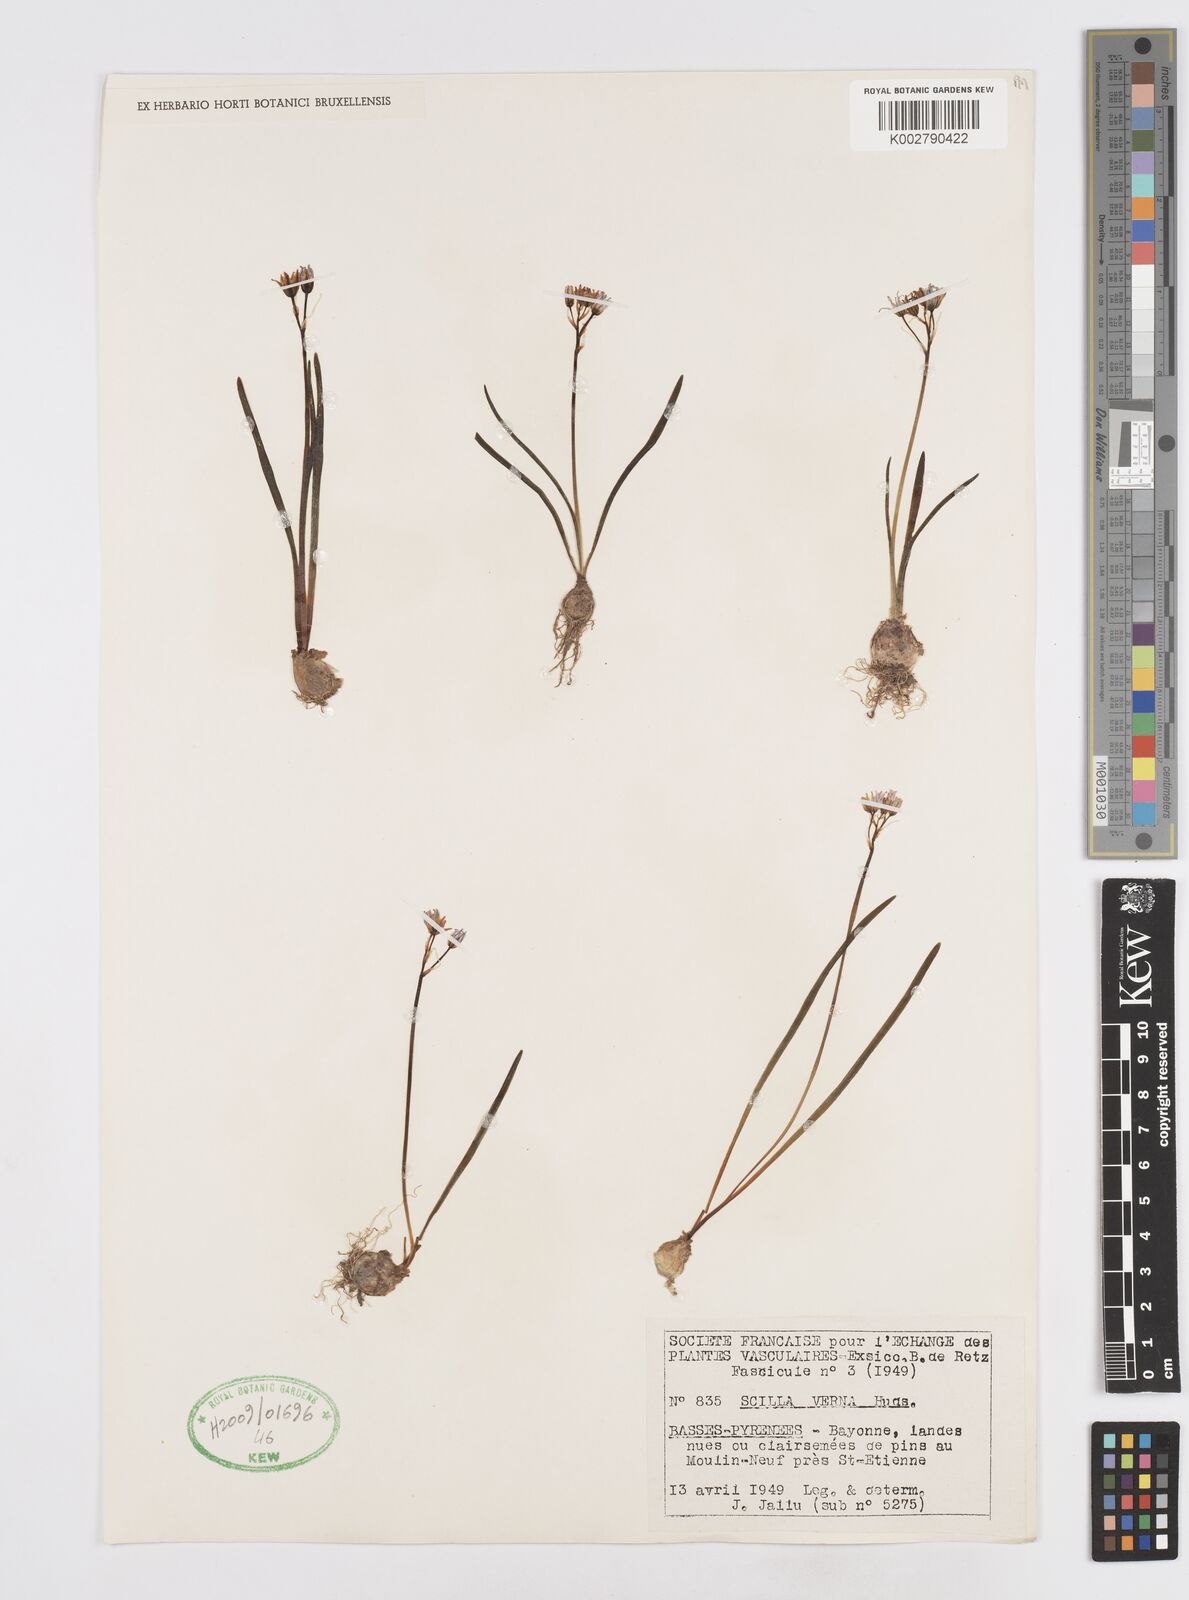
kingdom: Plantae
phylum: Tracheophyta
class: Liliopsida
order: Asparagales
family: Asparagaceae
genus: Scilla
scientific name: Scilla verna
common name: Spring squill
